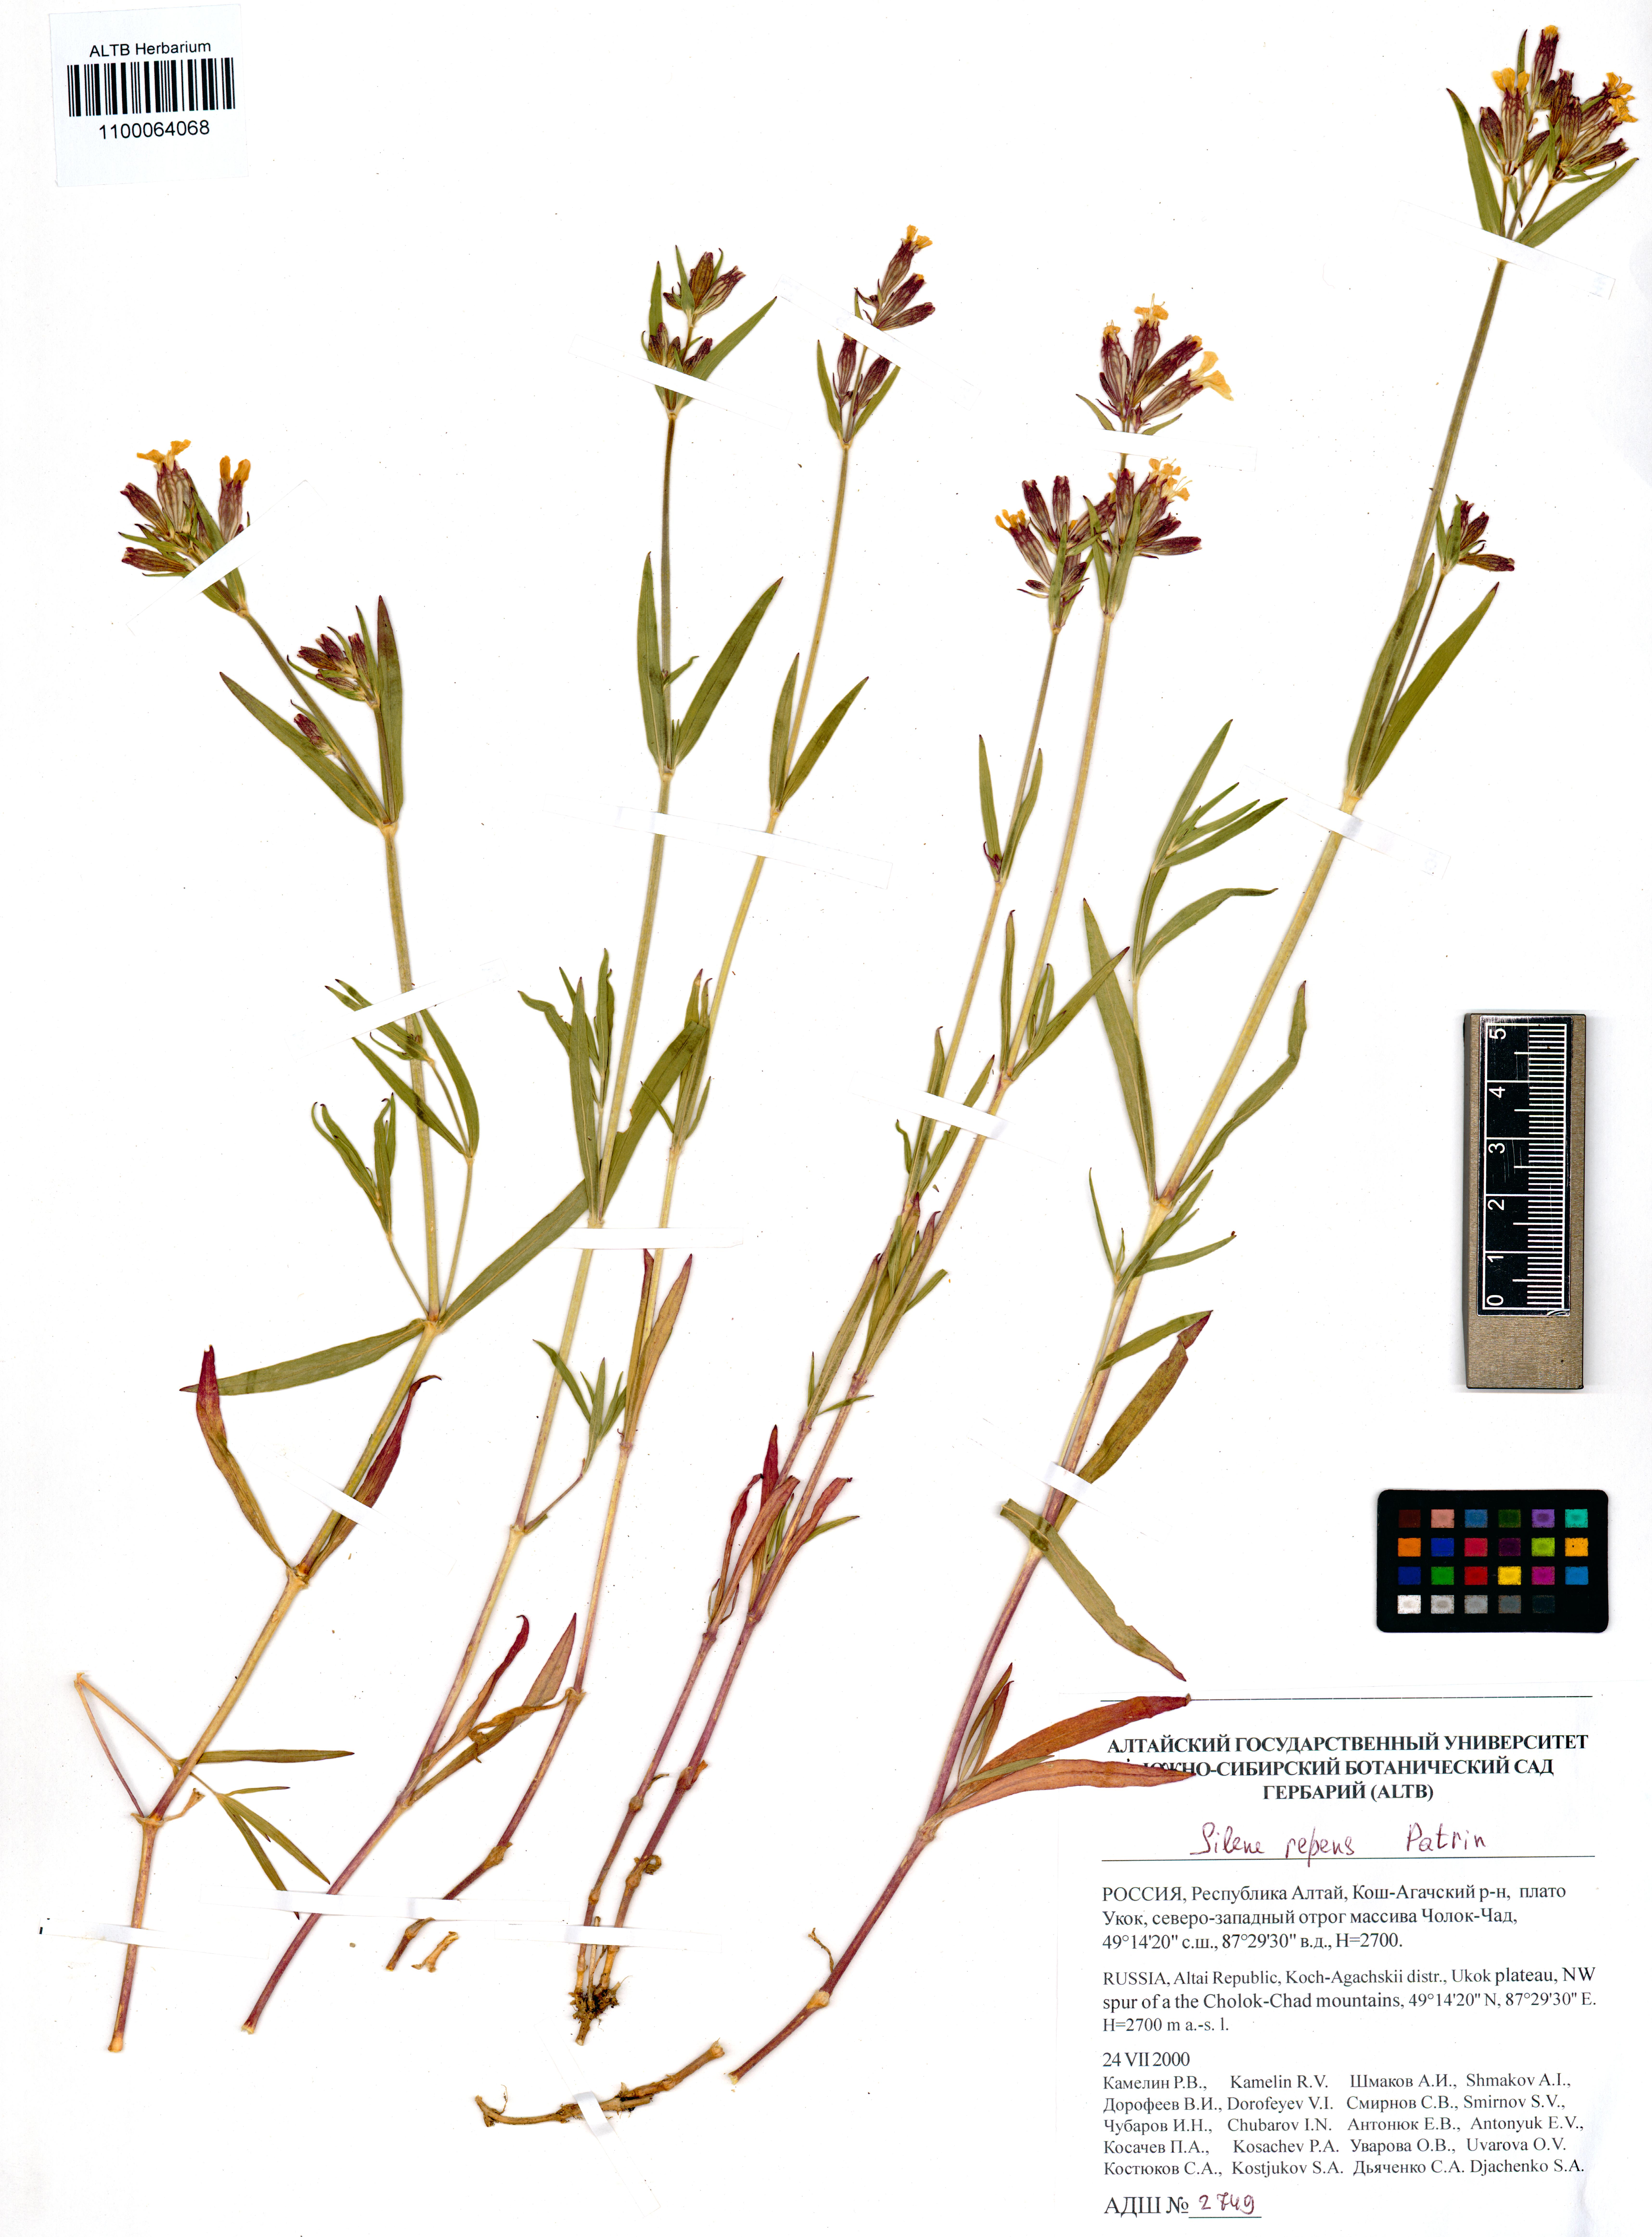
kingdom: Plantae
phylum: Tracheophyta
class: Magnoliopsida
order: Caryophyllales
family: Caryophyllaceae
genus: Silene
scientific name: Silene repens
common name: Pink campion
